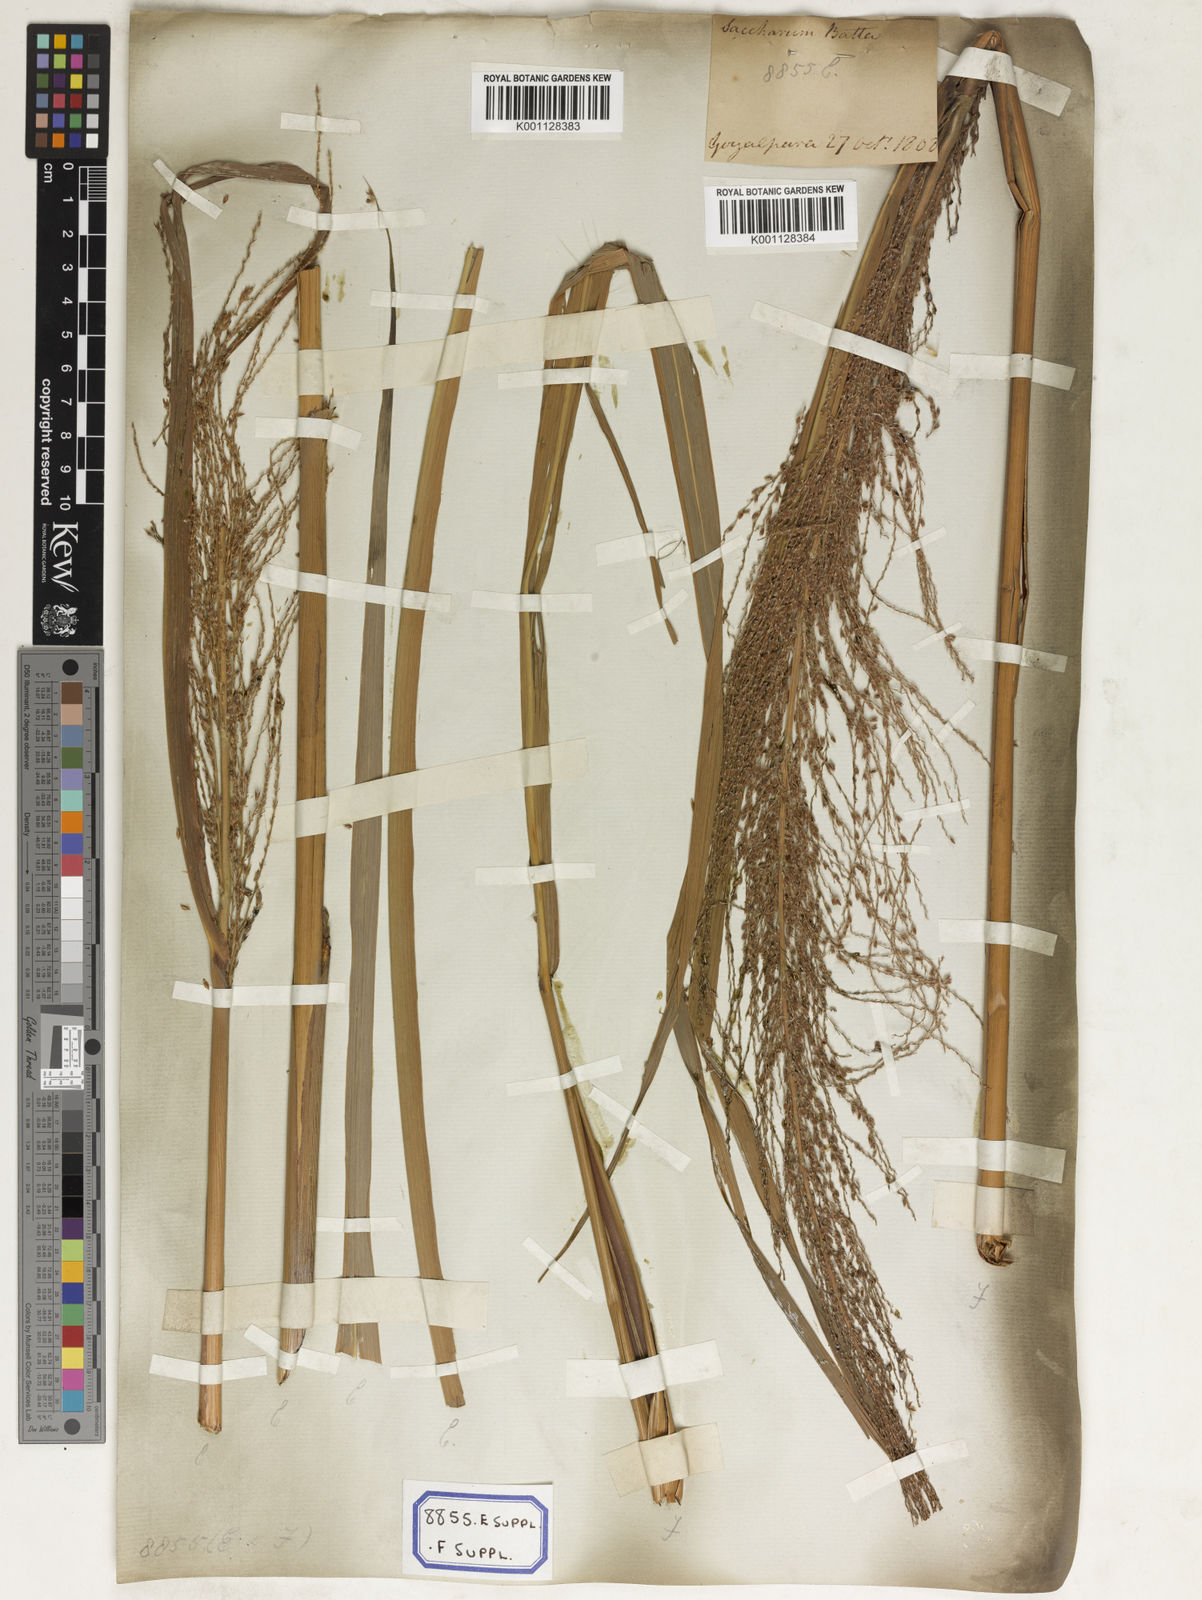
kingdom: Plantae
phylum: Tracheophyta
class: Liliopsida
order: Poales
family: Poaceae
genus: Saccharum
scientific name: Saccharum
